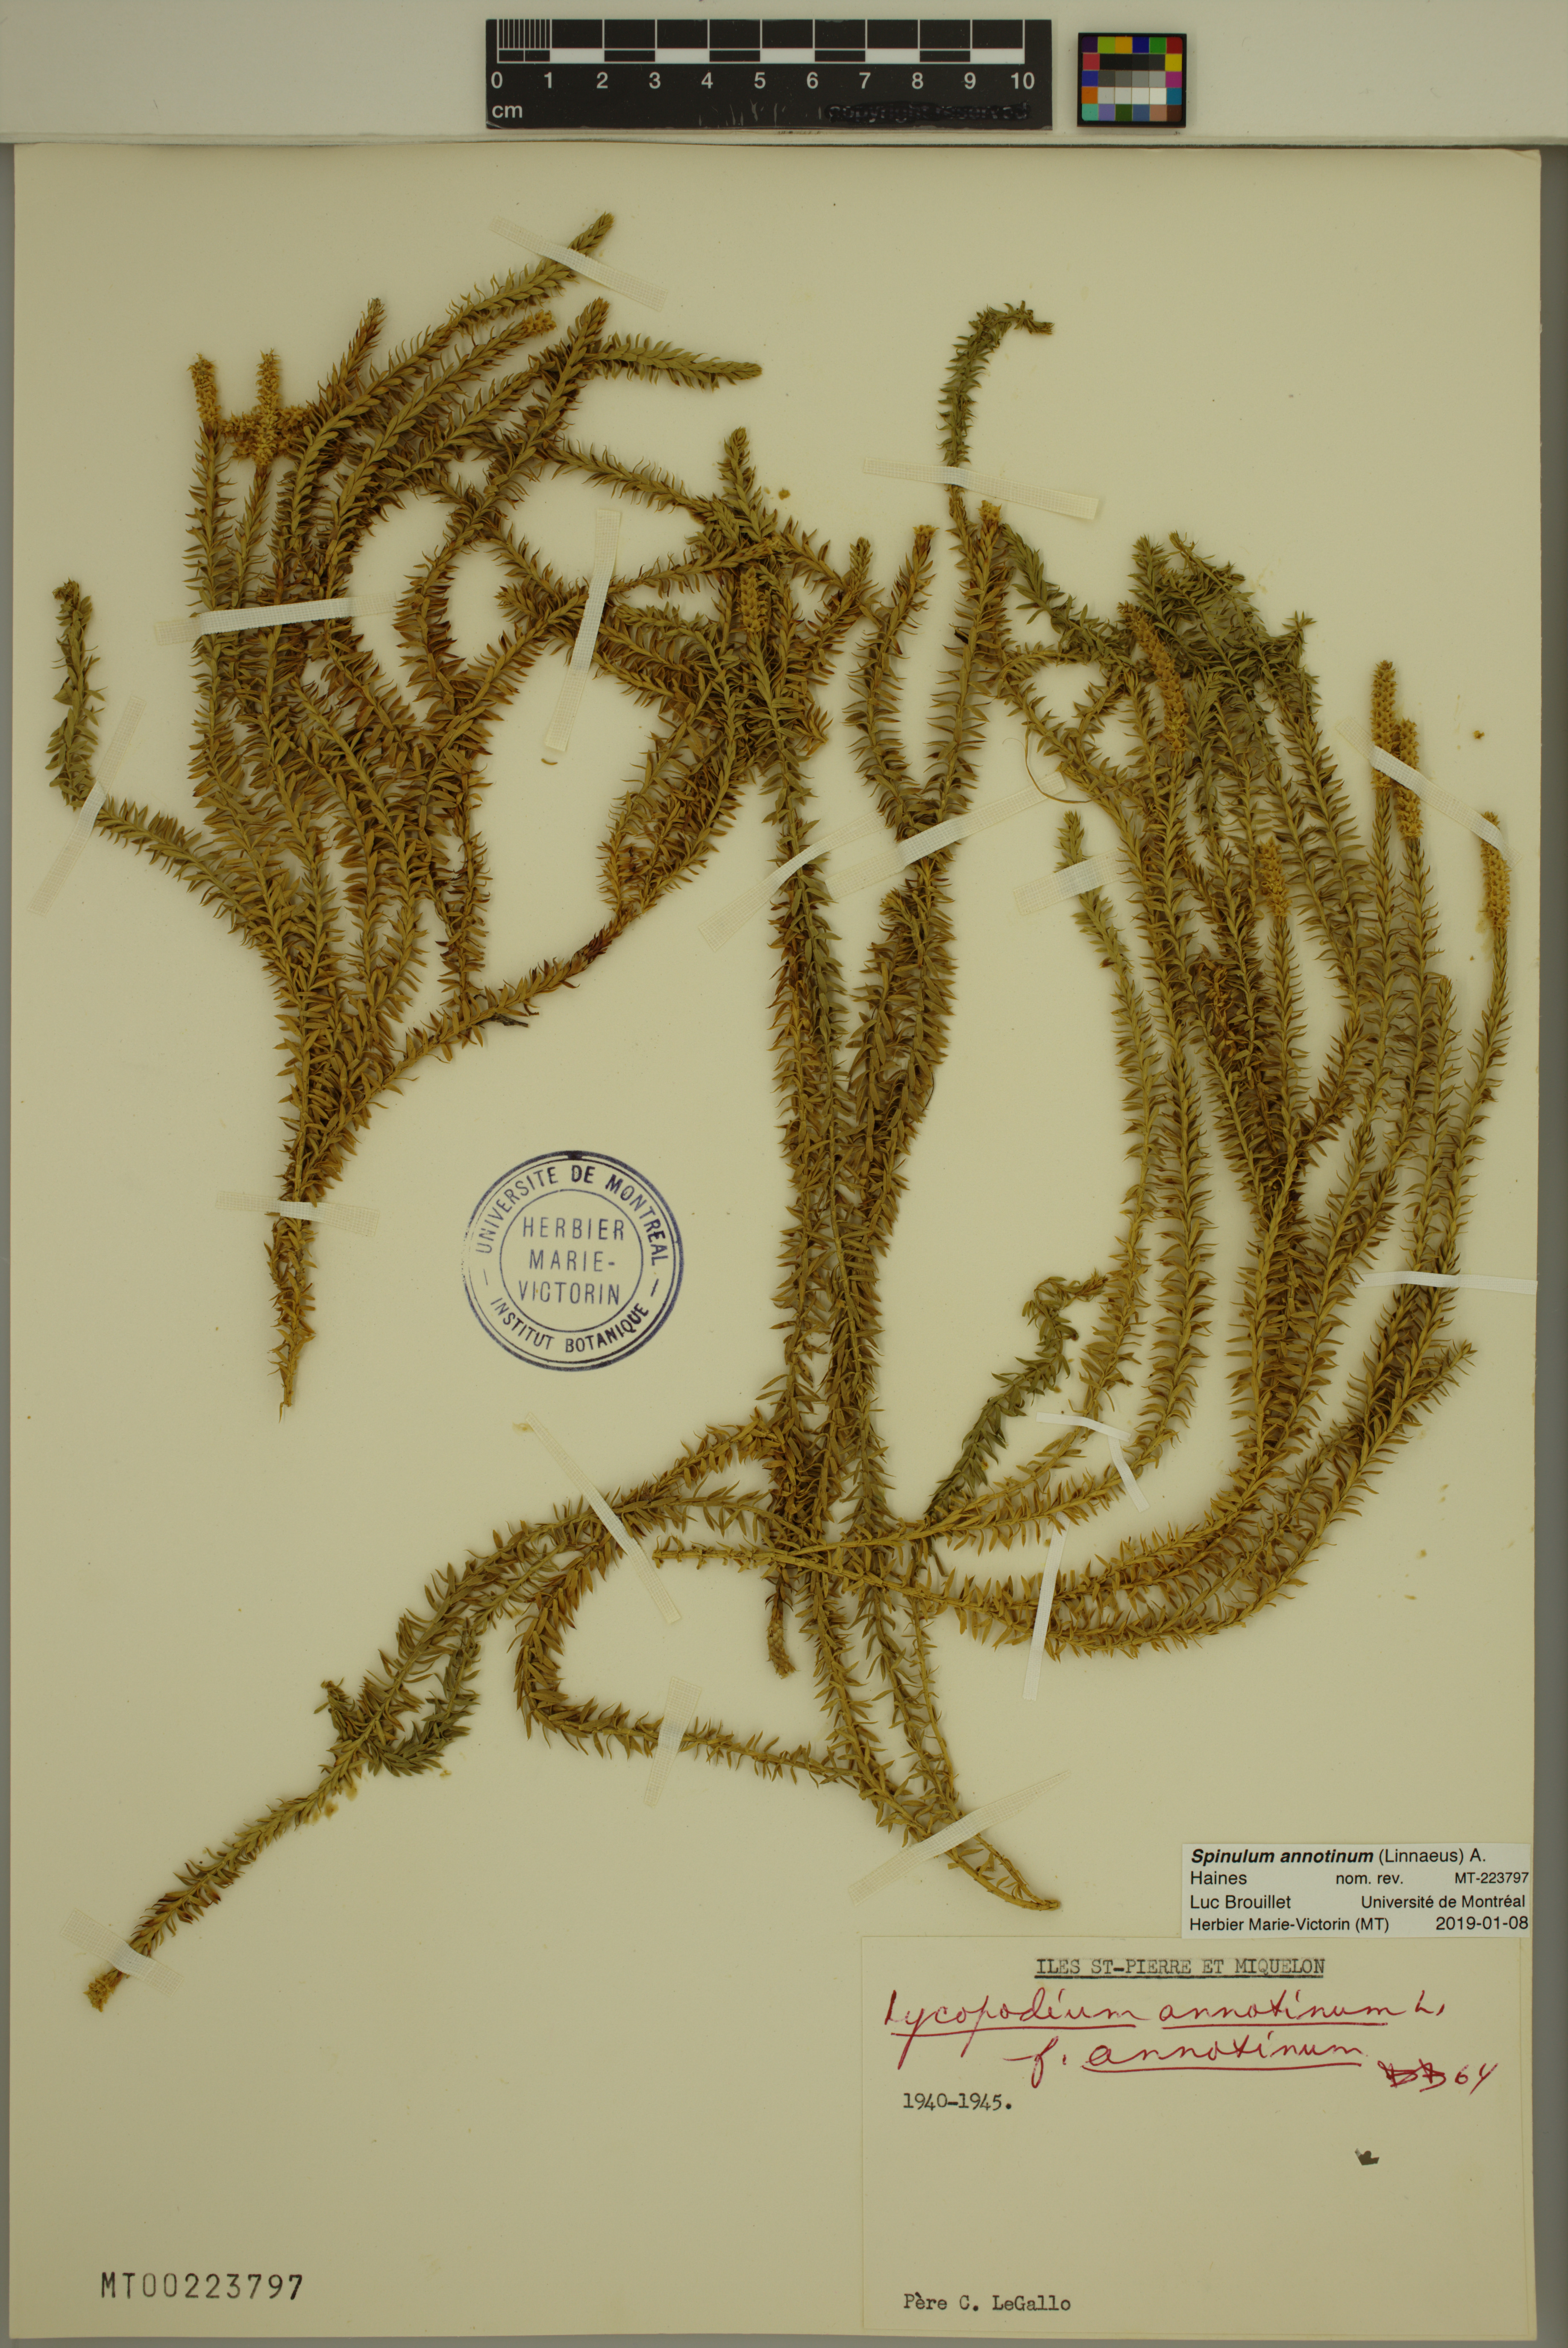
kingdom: Plantae
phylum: Tracheophyta
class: Lycopodiopsida
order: Lycopodiales
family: Lycopodiaceae
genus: Spinulum
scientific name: Spinulum annotinum
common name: Interrupted club-moss
